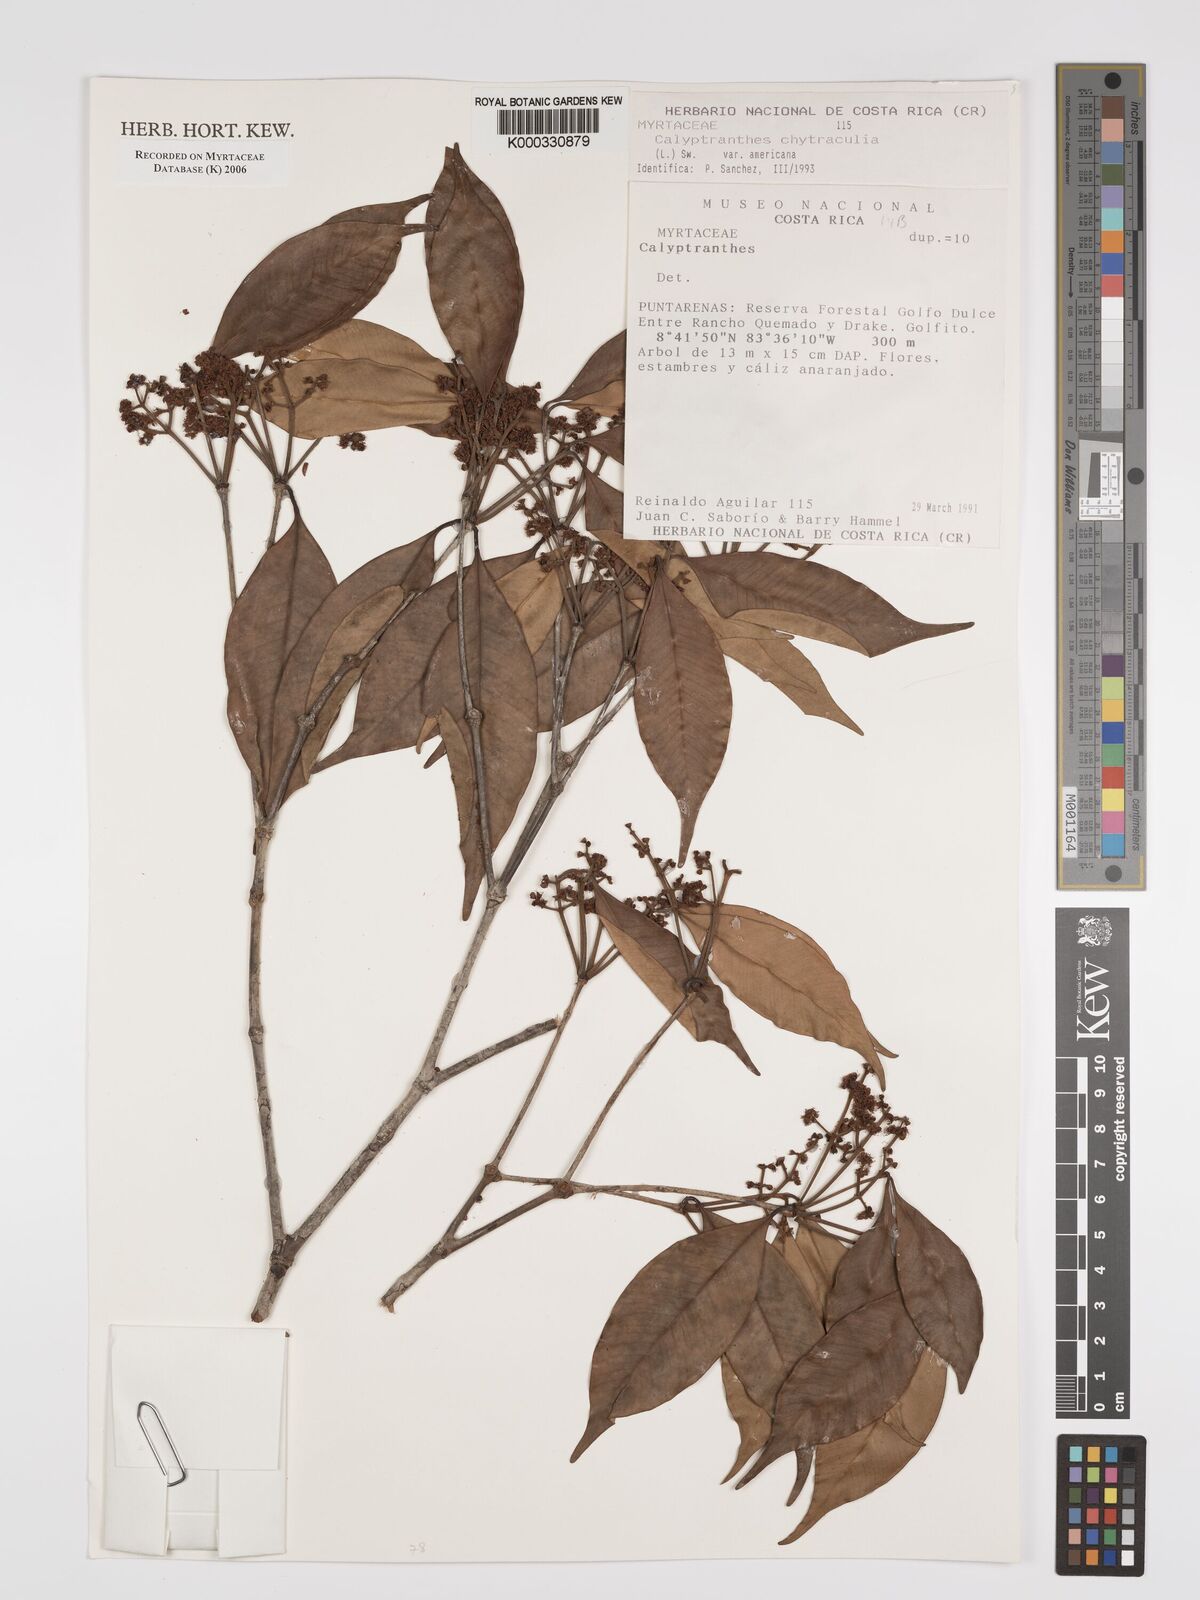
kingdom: Plantae
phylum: Tracheophyta
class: Magnoliopsida
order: Myrtales
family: Myrtaceae
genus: Myrcia
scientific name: Myrcia chytraculia
